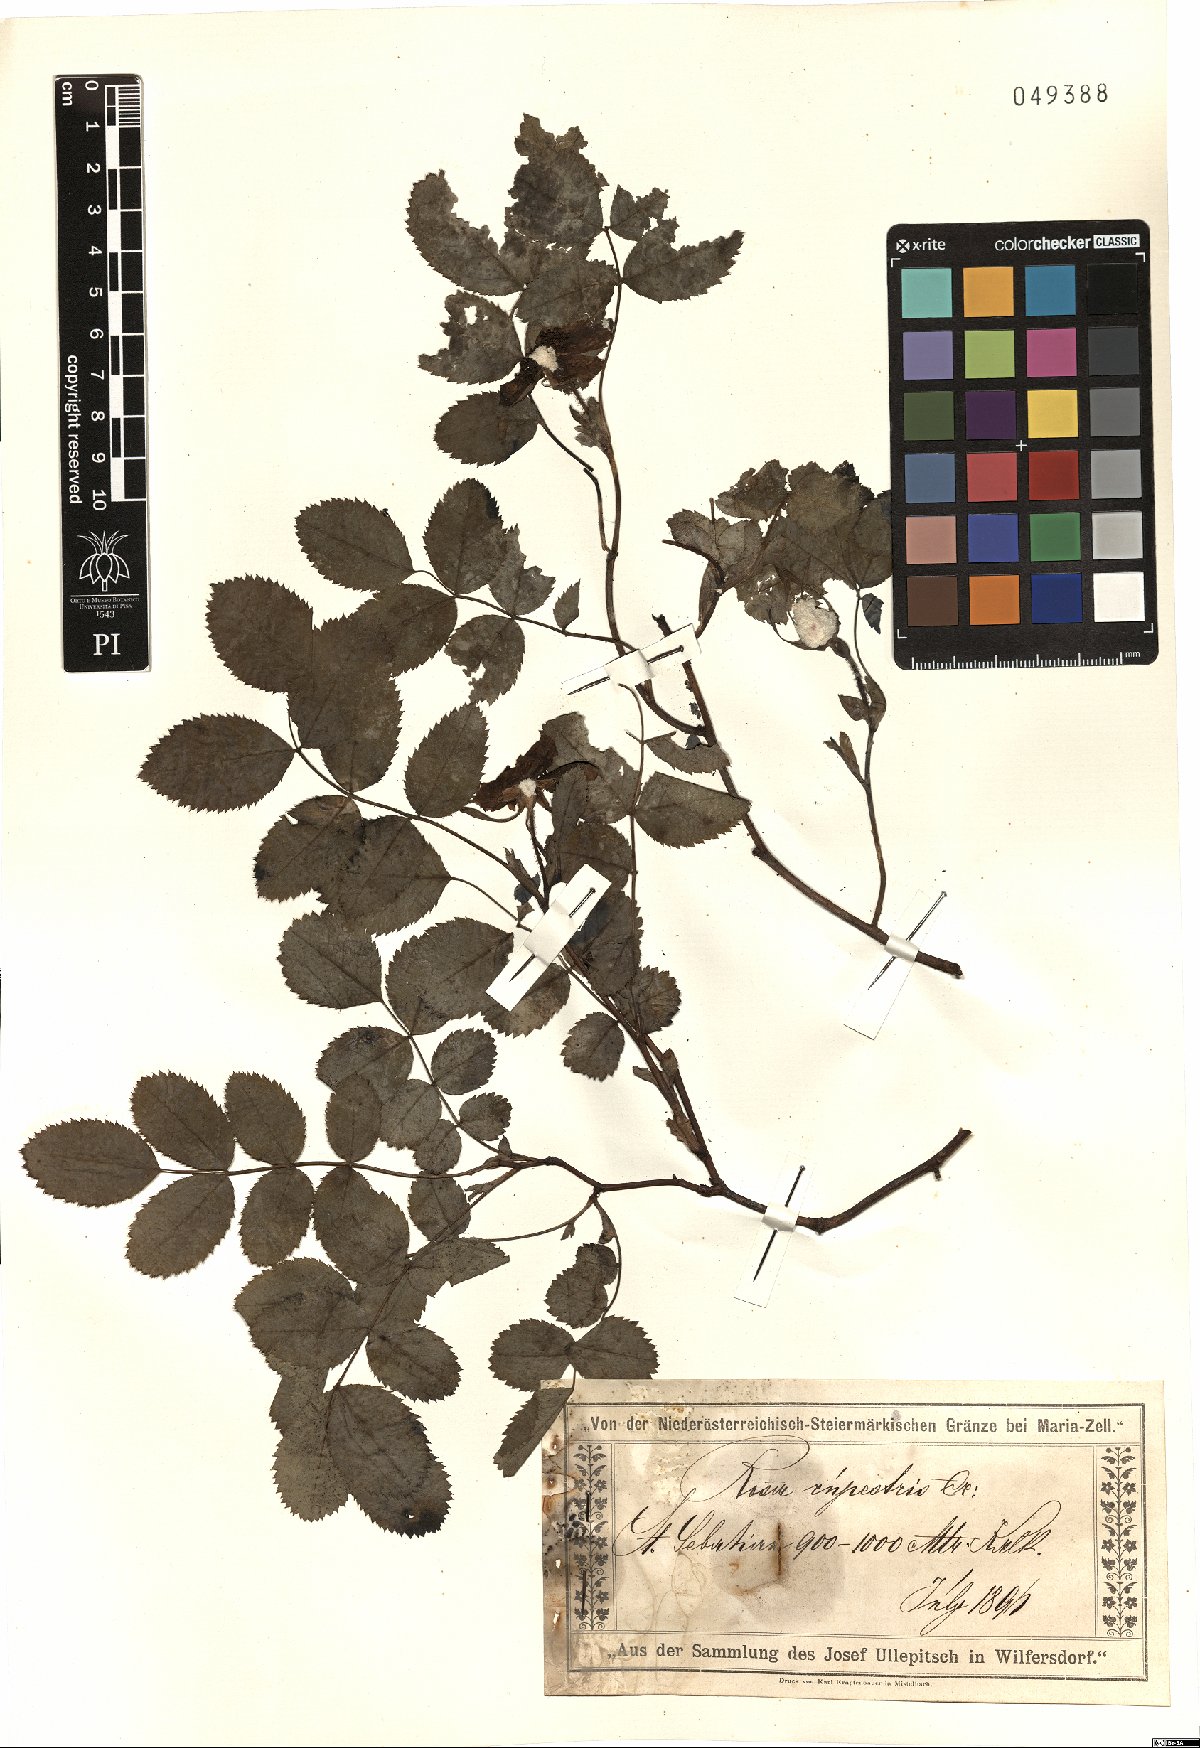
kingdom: Plantae
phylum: Tracheophyta
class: Magnoliopsida
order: Rosales
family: Rosaceae
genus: Rosa
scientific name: Rosa
